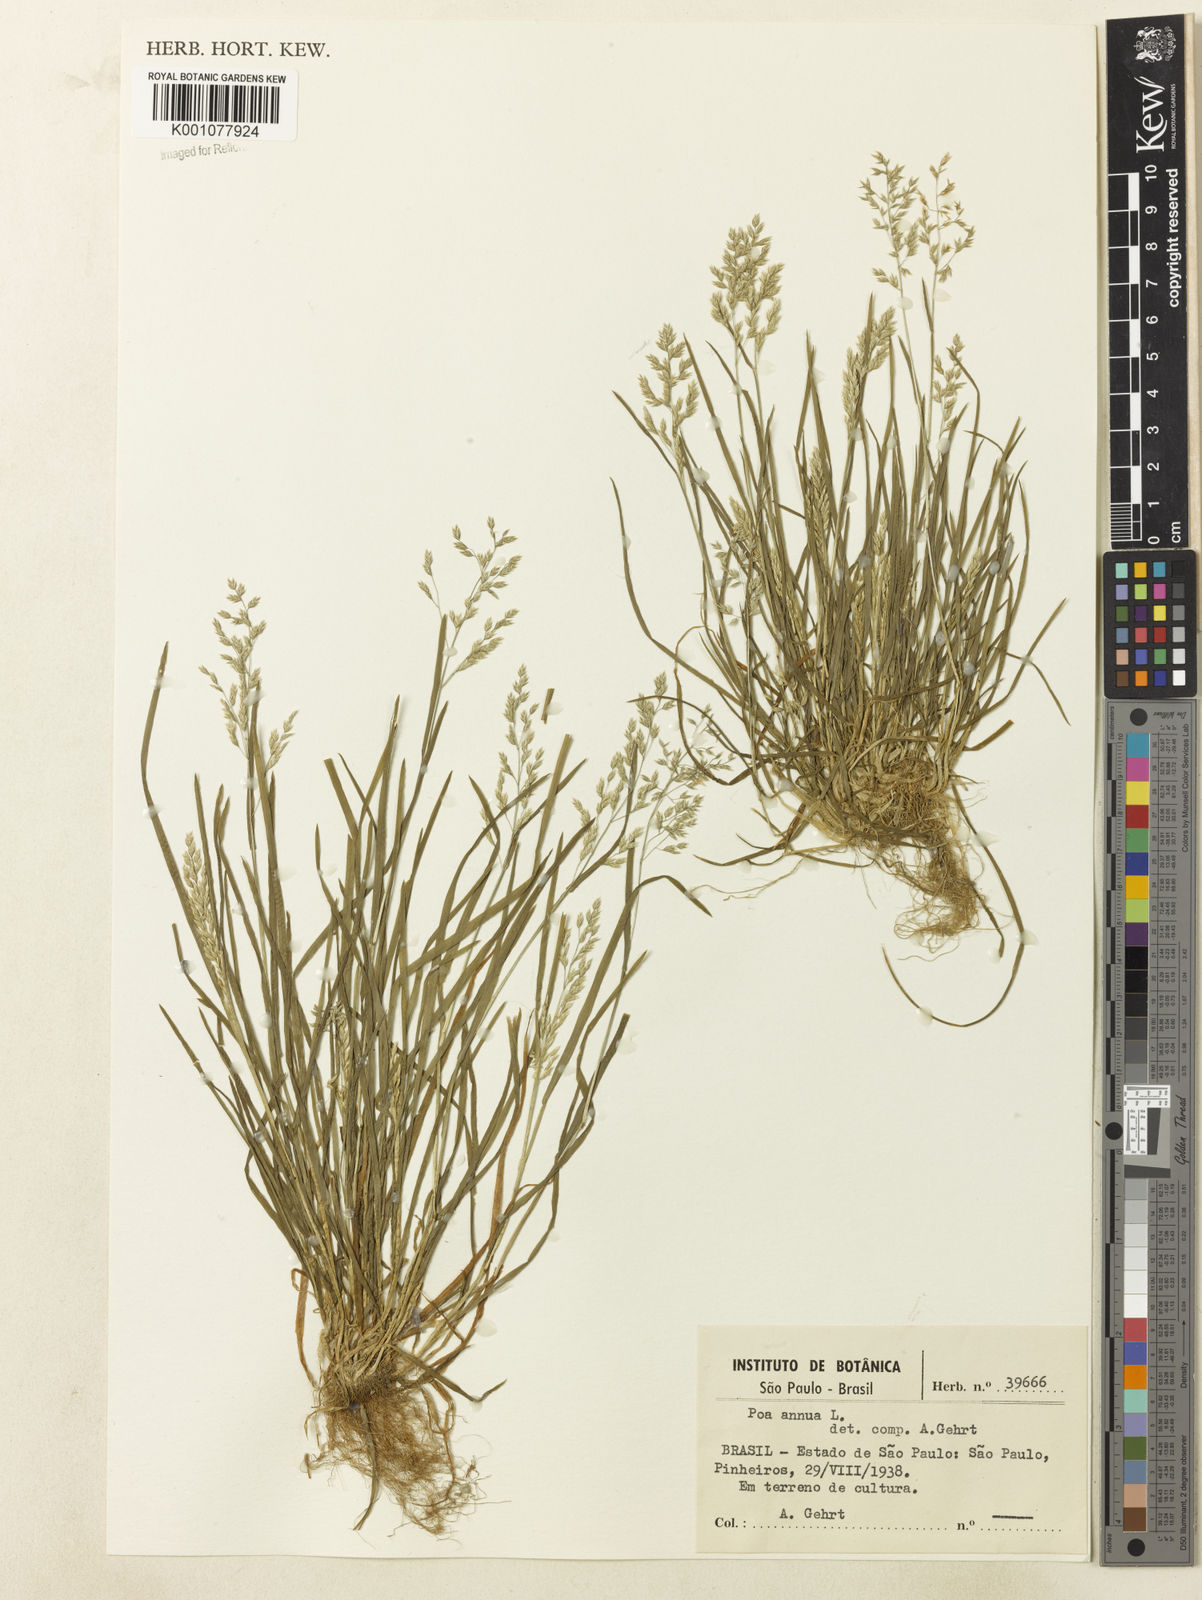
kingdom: Plantae
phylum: Tracheophyta
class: Liliopsida
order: Poales
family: Poaceae
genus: Poa
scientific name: Poa annua
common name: Annual bluegrass
